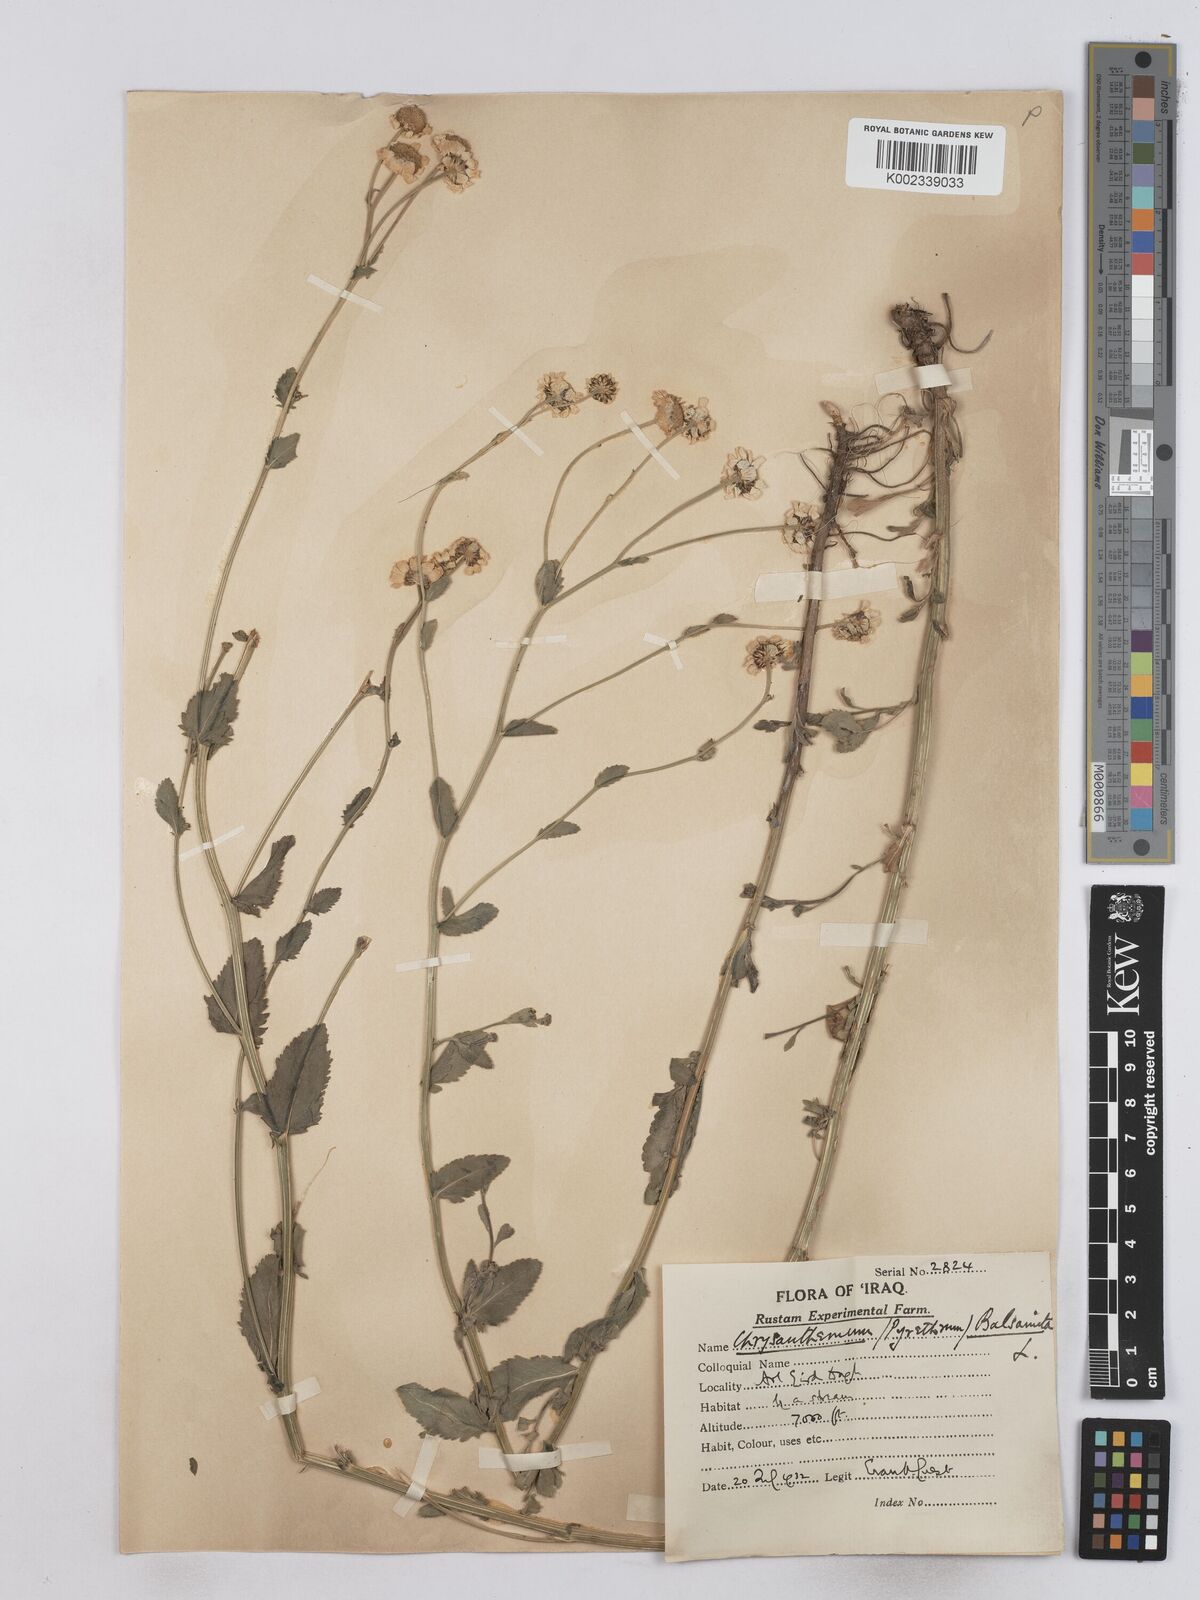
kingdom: Plantae
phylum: Tracheophyta
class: Magnoliopsida
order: Asterales
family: Asteraceae
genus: Tanacetum
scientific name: Tanacetum balsamitoides
